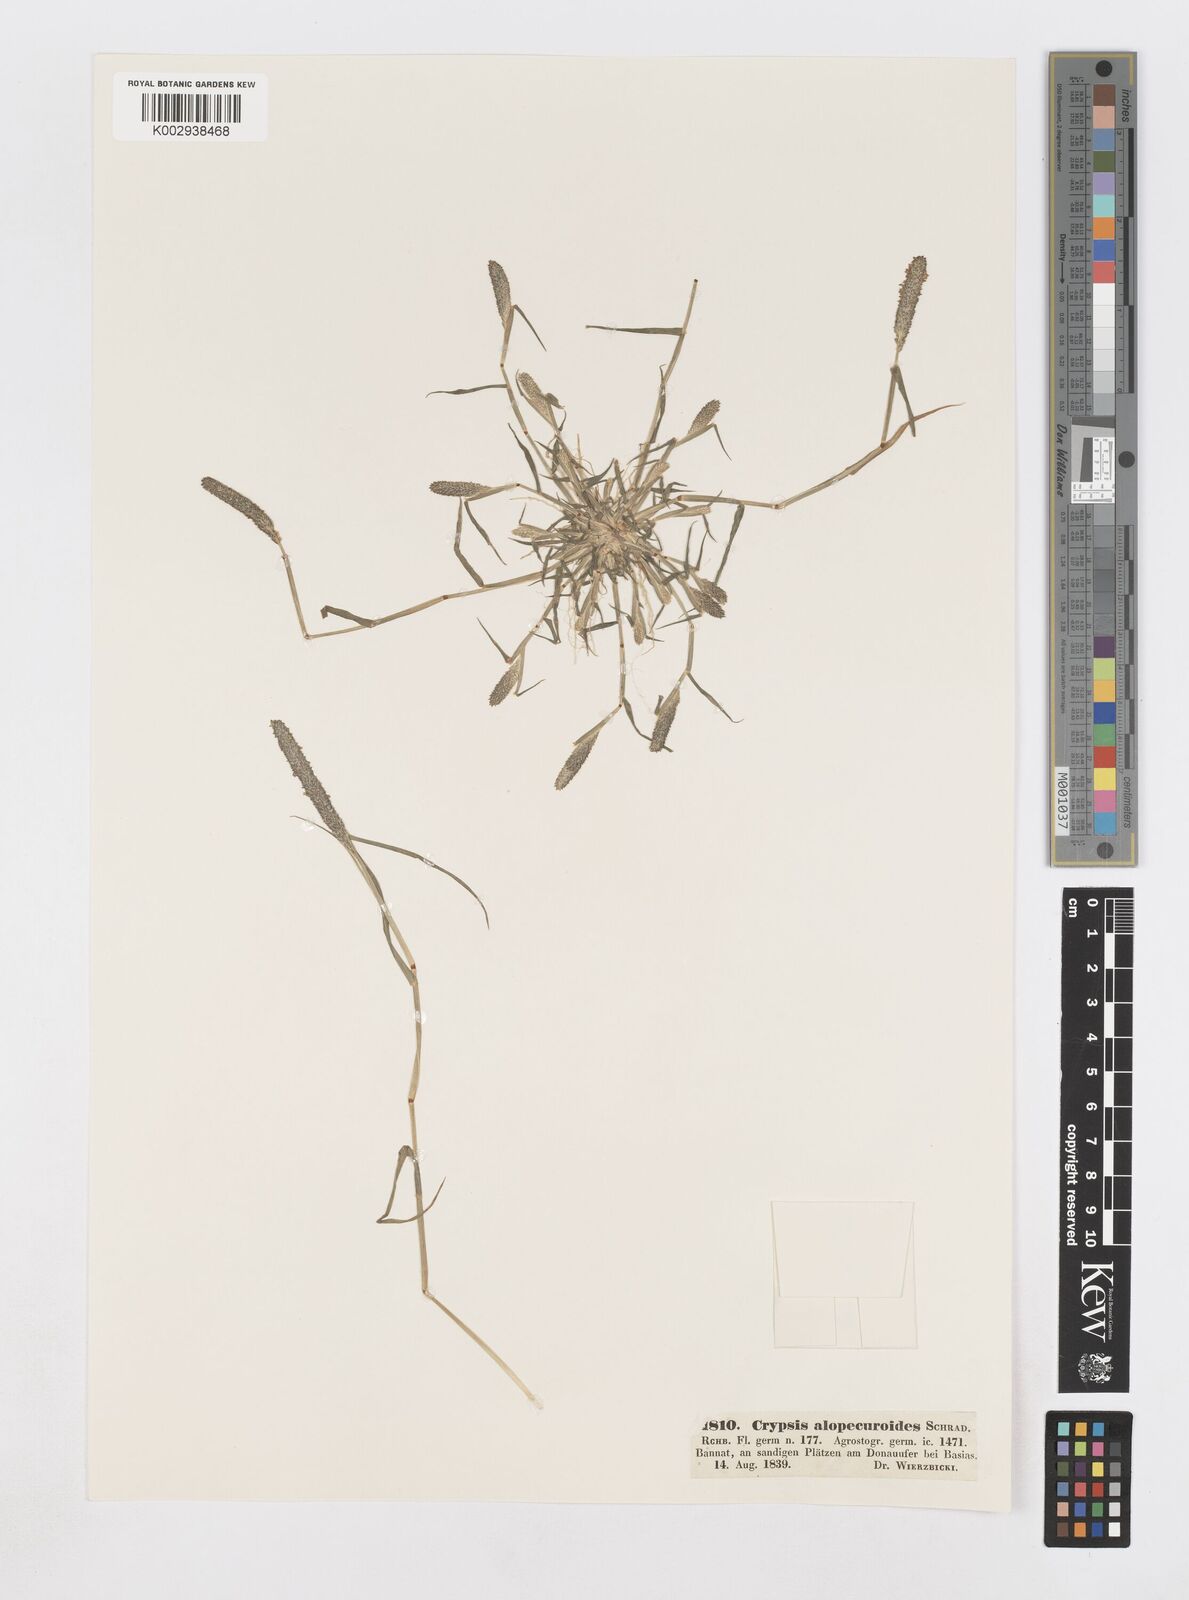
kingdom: Plantae
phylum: Tracheophyta
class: Liliopsida
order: Poales
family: Poaceae
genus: Sporobolus
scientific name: Sporobolus alopecuroides
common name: Foxtail pricklegrass
